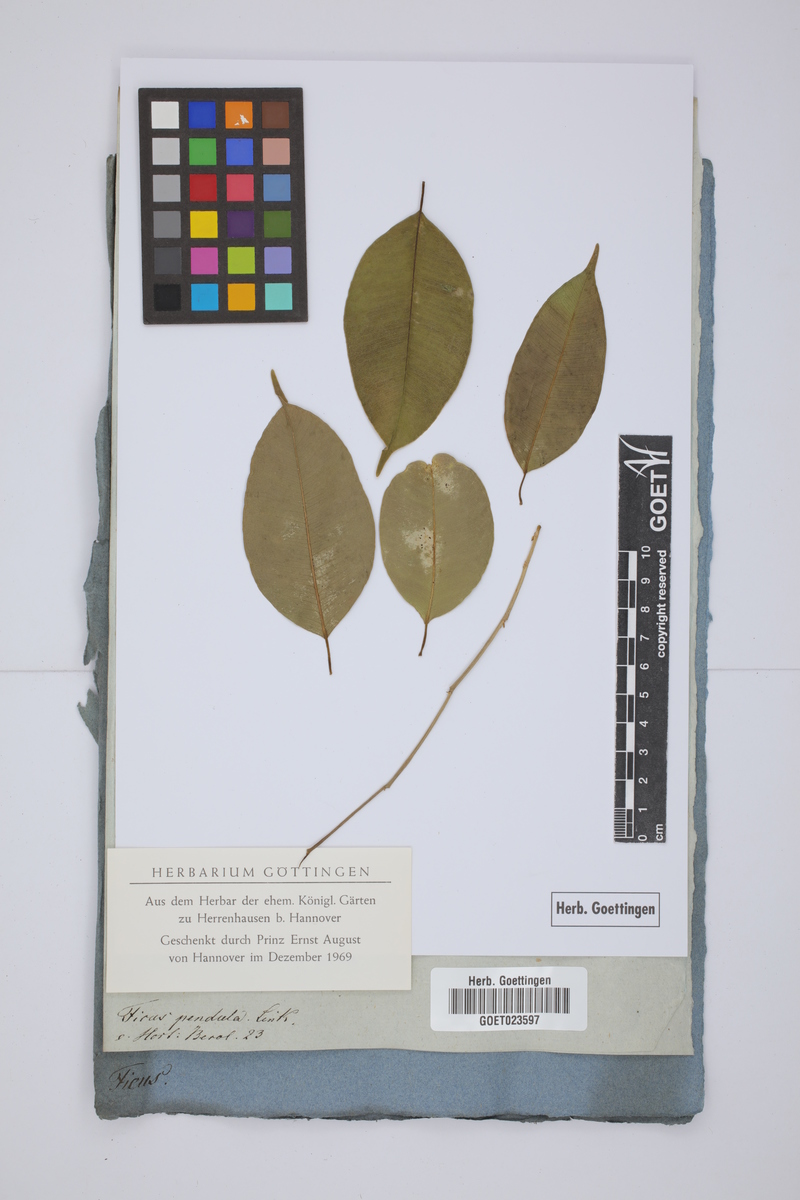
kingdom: Plantae
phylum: Tracheophyta
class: Magnoliopsida
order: Rosales
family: Moraceae
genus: Ficus
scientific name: Ficus benjamina
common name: Weeping fig
